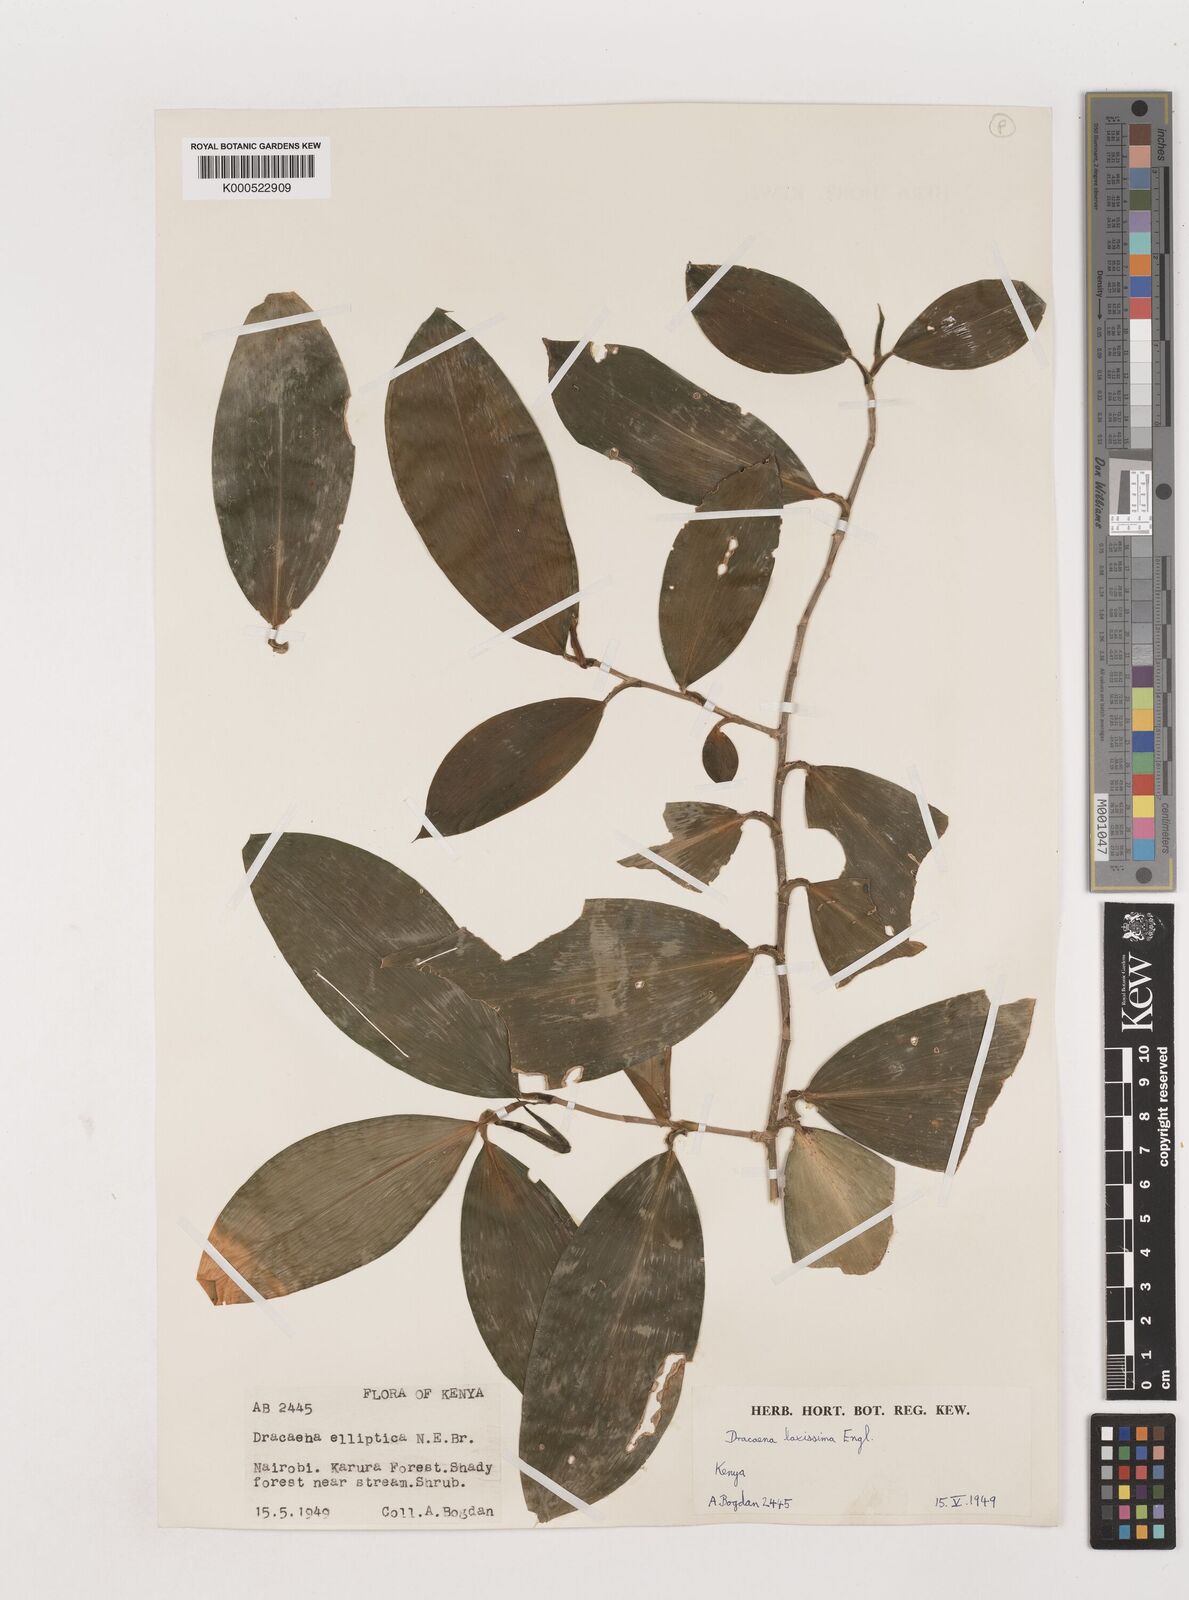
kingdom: Plantae
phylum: Tracheophyta
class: Liliopsida
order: Asparagales
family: Asparagaceae
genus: Dracaena
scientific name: Dracaena laxissima
